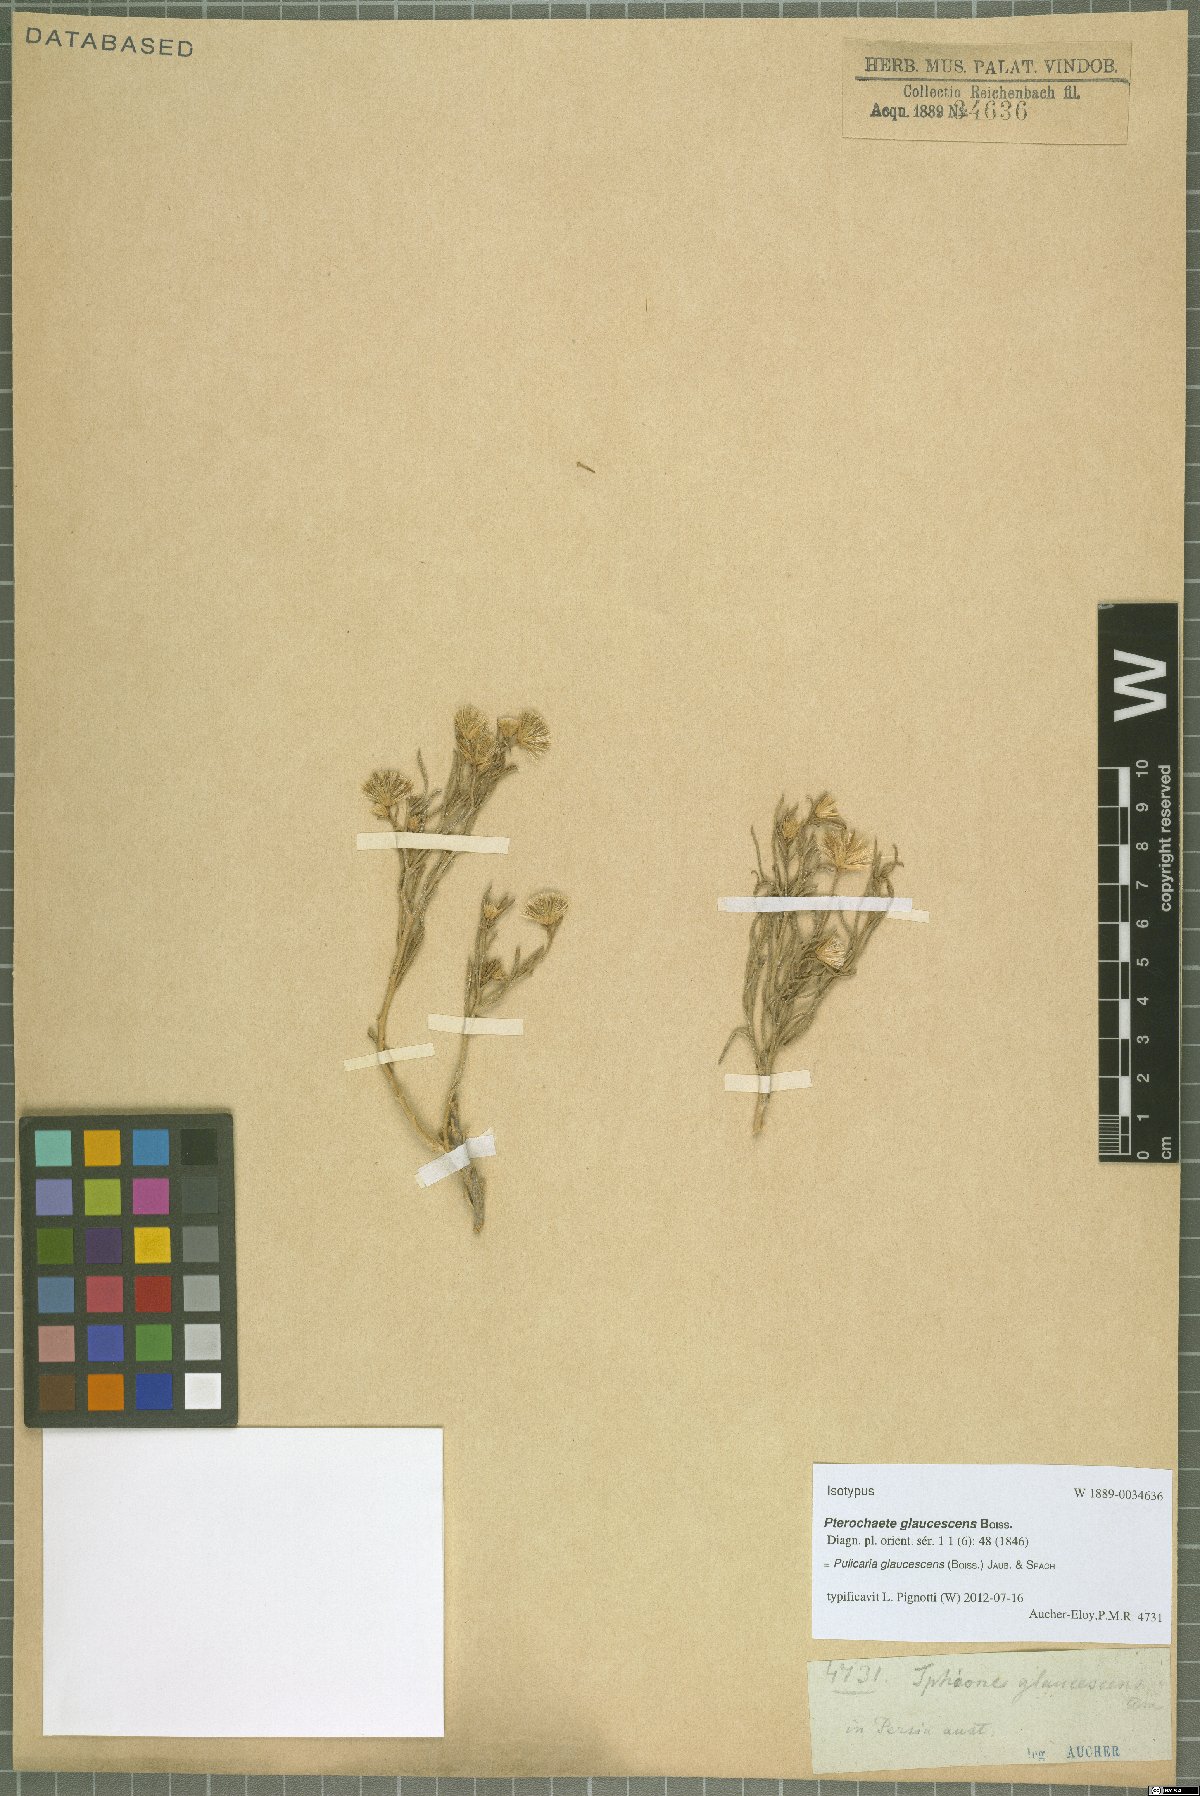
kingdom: Plantae
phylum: Tracheophyta
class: Magnoliopsida
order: Asterales
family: Asteraceae
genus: Pulicaria
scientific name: Pulicaria glaucescens
